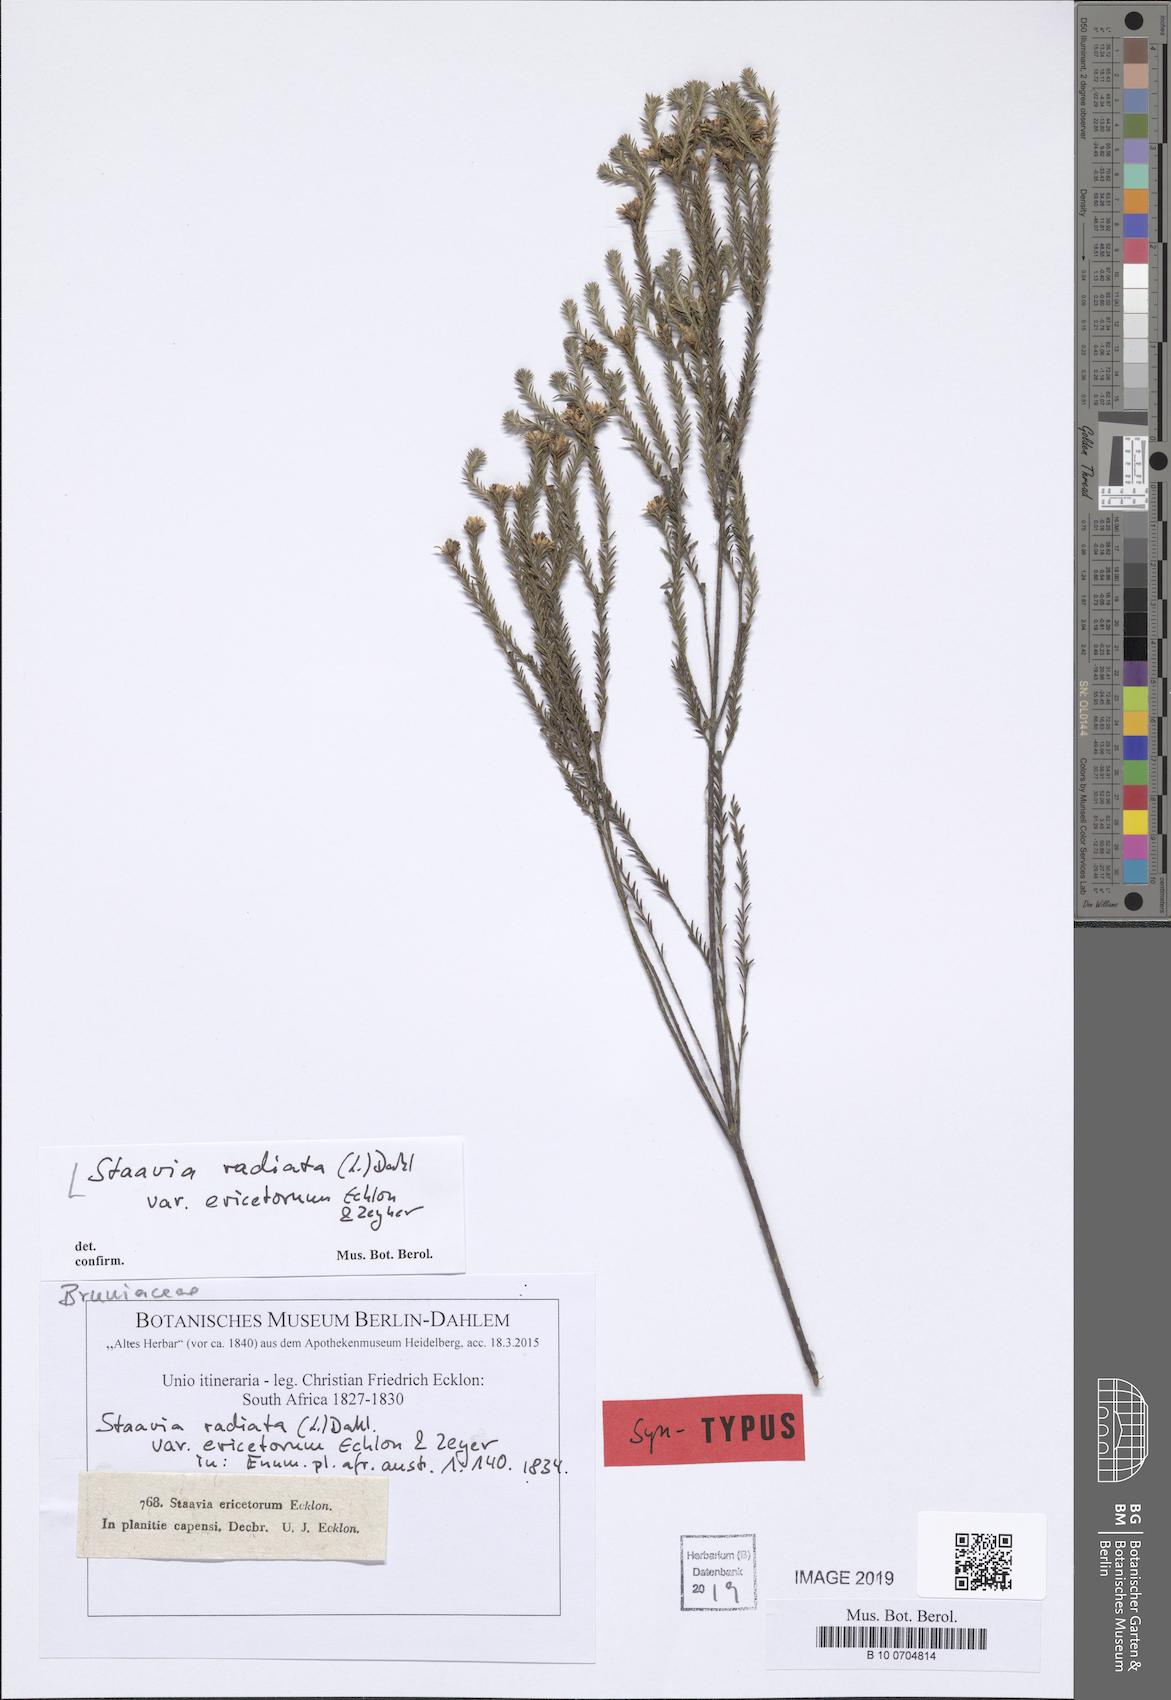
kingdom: Plantae
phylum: Tracheophyta
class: Magnoliopsida
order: Bruniales
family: Bruniaceae
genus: Staavia
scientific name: Staavia radiata
